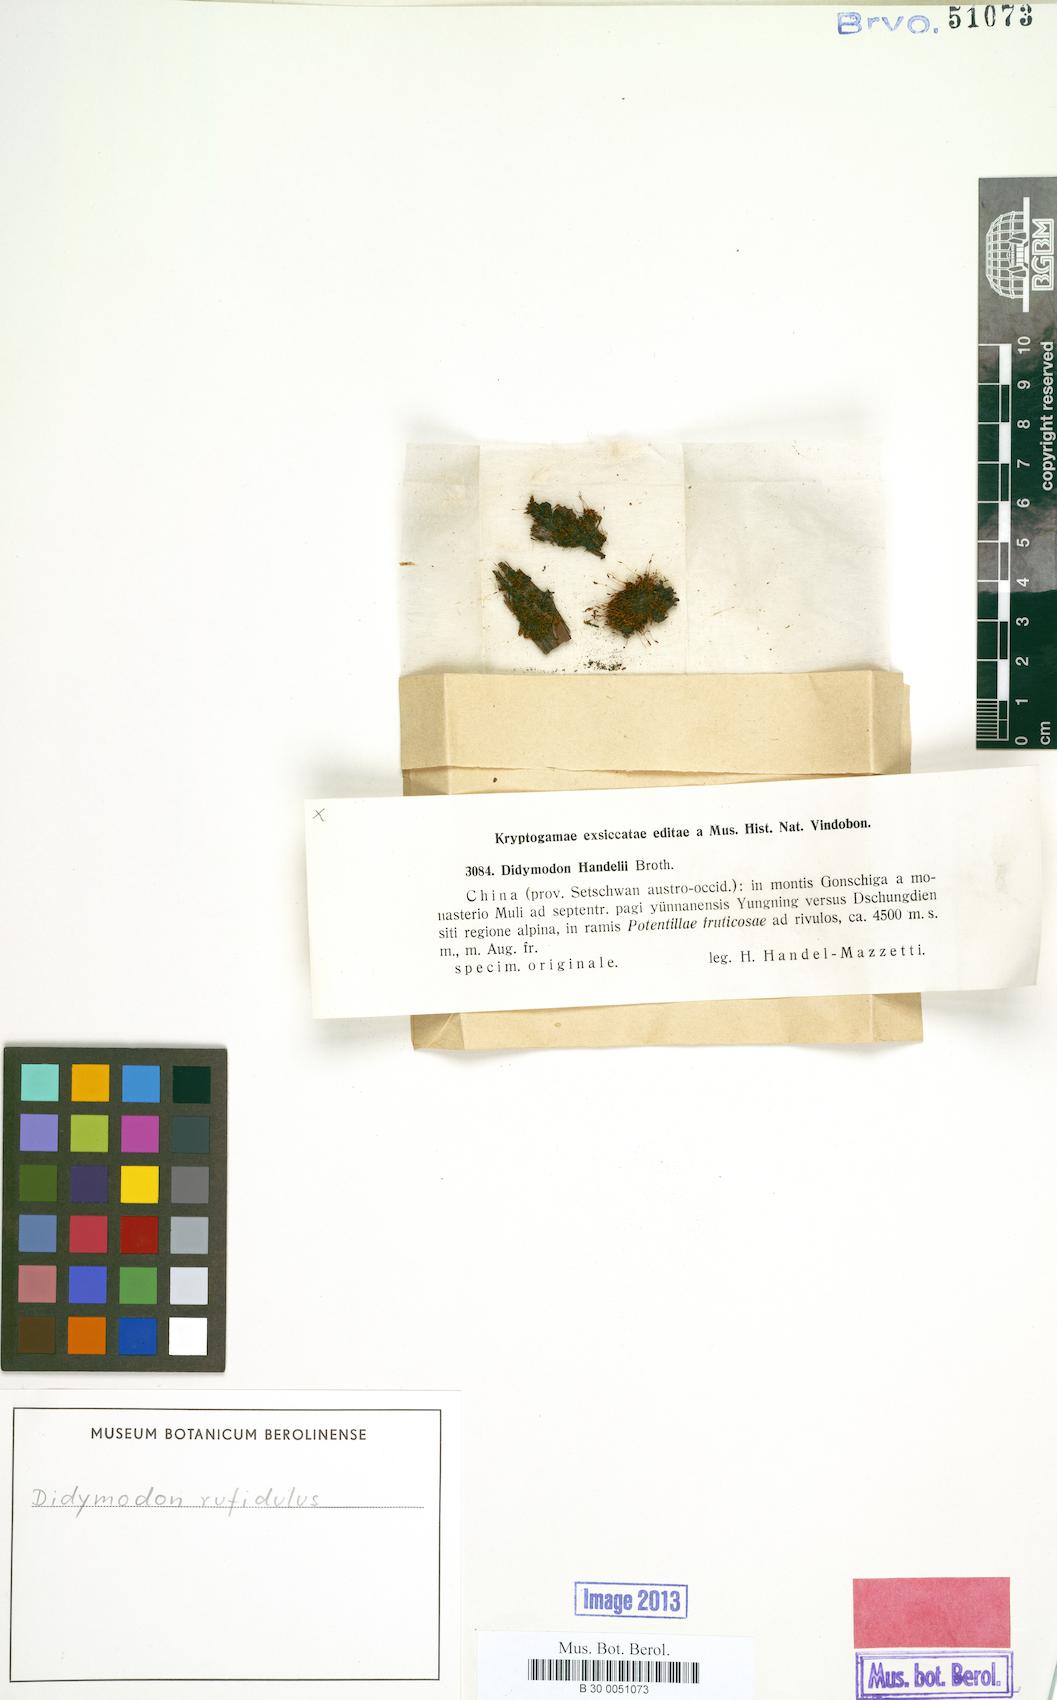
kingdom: Plantae
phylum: Bryophyta
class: Bryopsida
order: Pottiales
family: Pottiaceae
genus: Husnotiella
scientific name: Husnotiella rufidula
